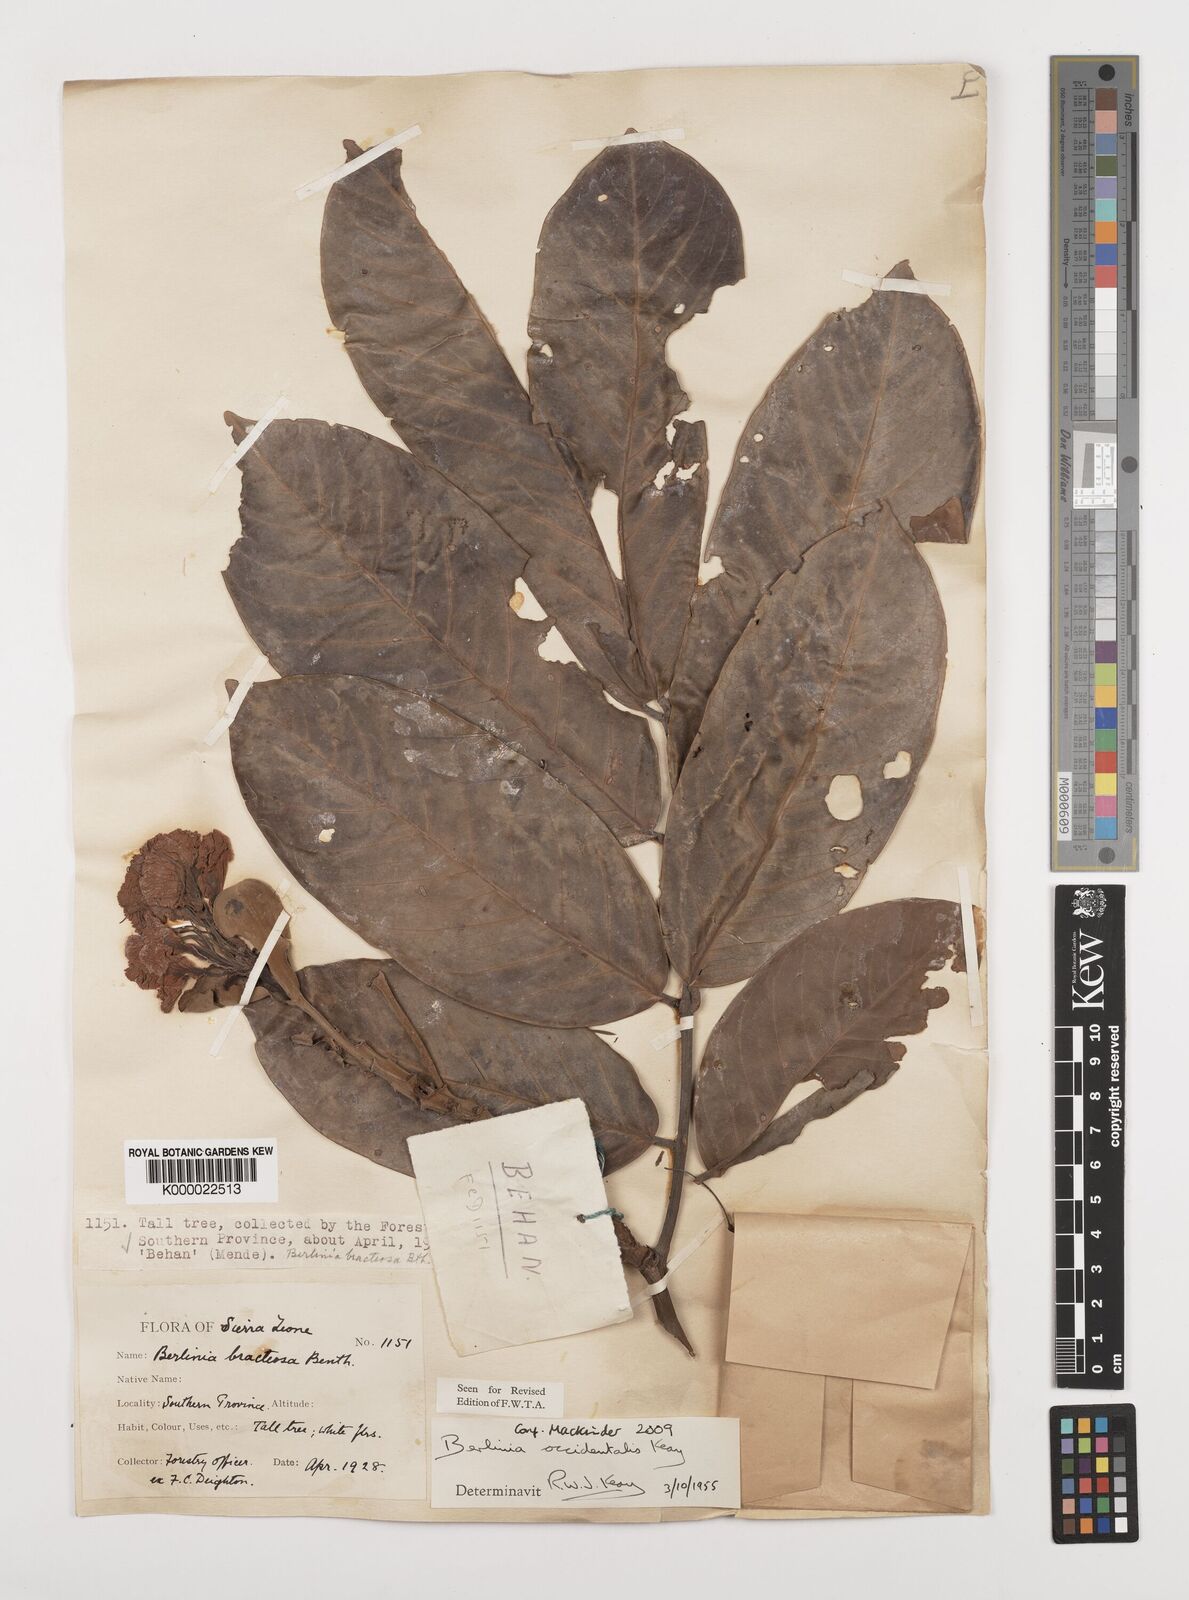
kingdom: Plantae
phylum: Tracheophyta
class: Magnoliopsida
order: Fabales
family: Fabaceae
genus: Berlinia
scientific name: Berlinia grandiflora
